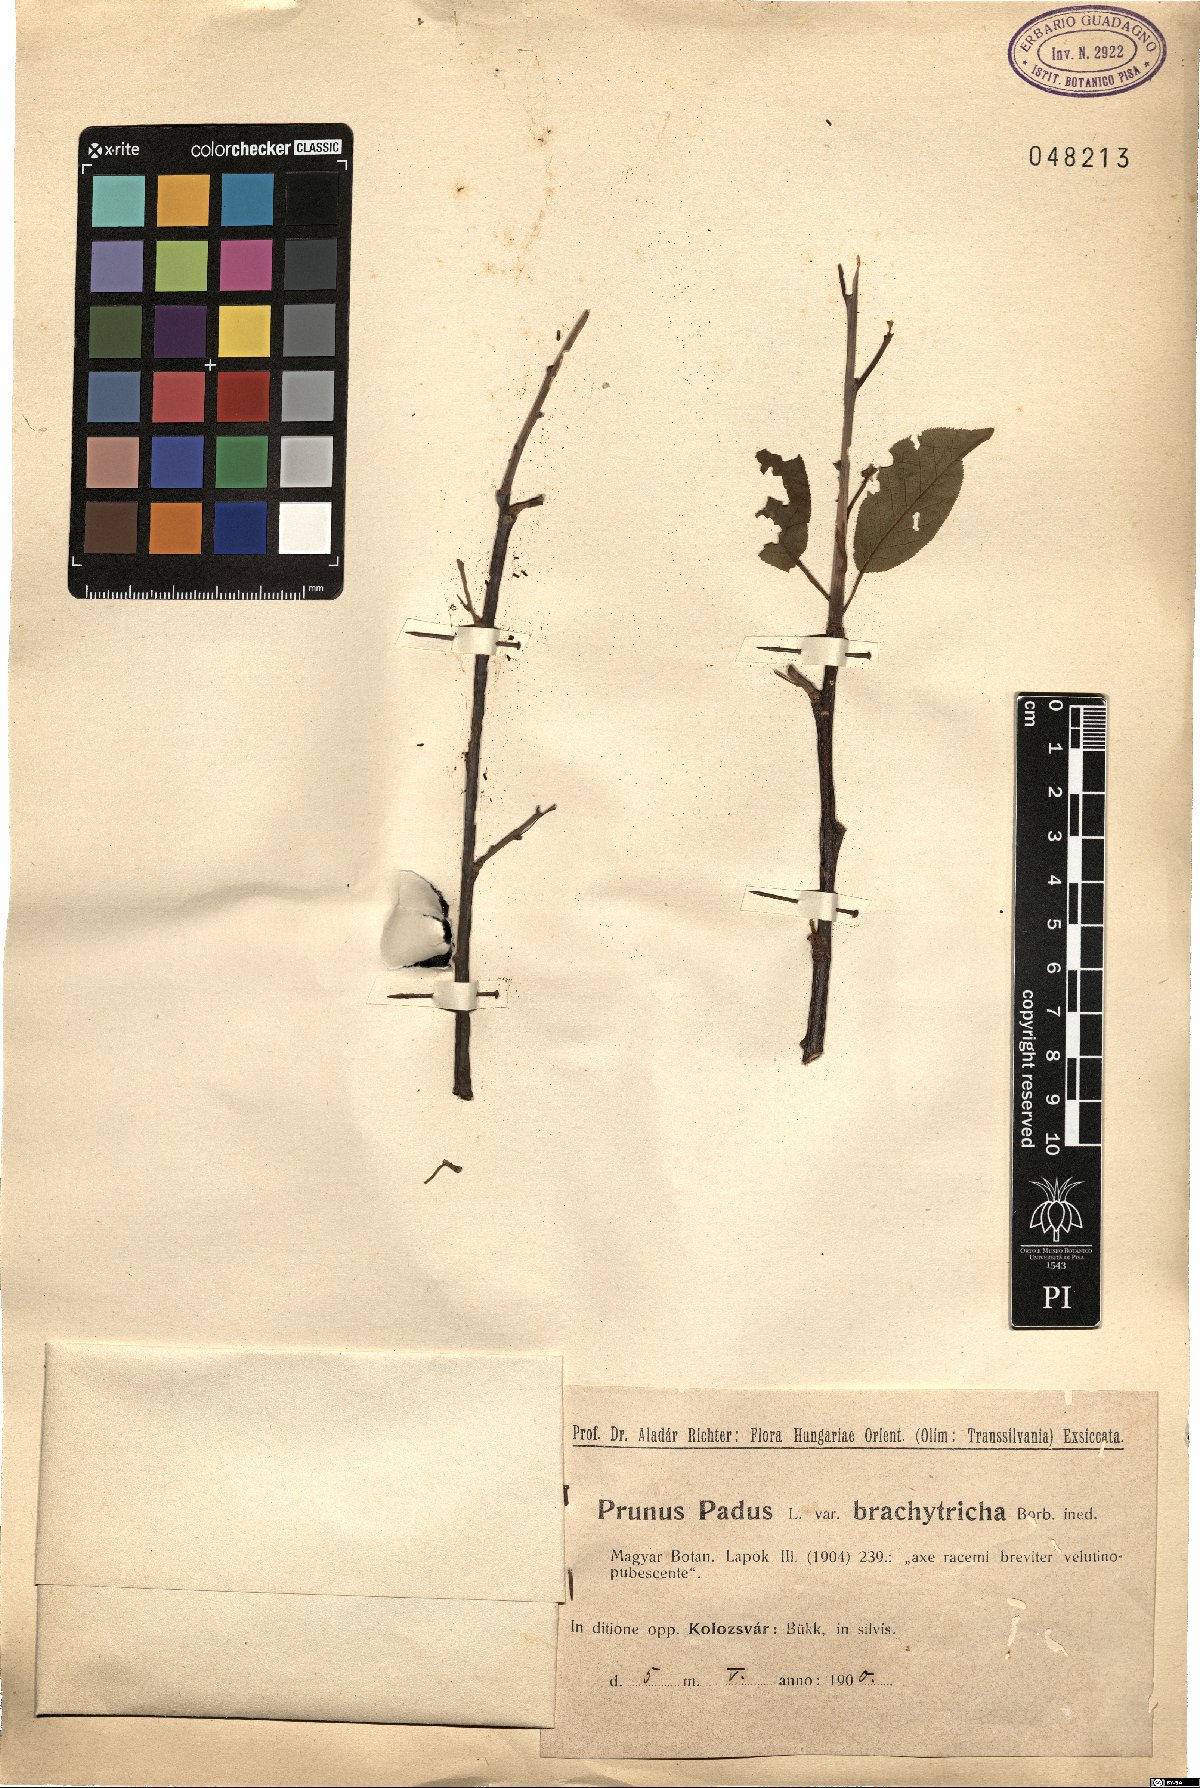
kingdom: Plantae
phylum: Tracheophyta
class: Magnoliopsida
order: Rosales
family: Rosaceae
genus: Prunus
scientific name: Prunus padus
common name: Bird cherry
